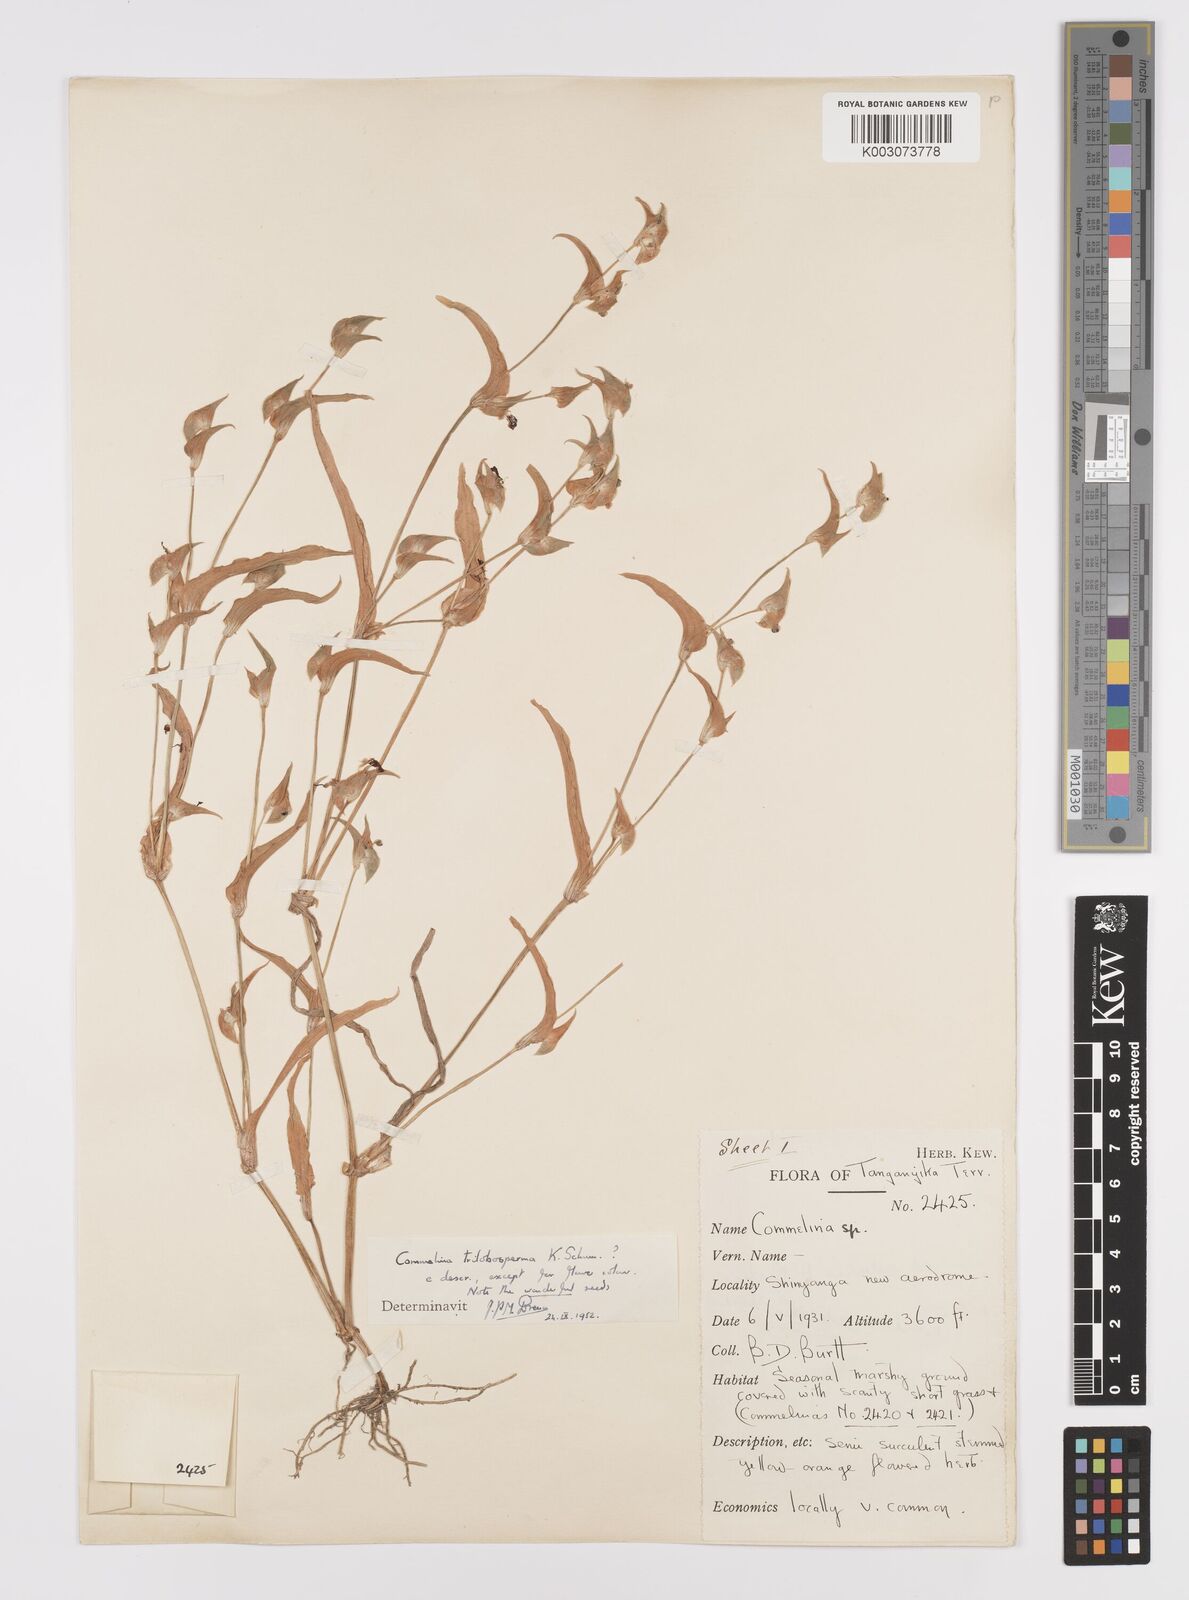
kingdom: Plantae
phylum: Tracheophyta
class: Liliopsida
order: Commelinales
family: Commelinaceae
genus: Commelina
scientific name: Commelina trilobosperma
